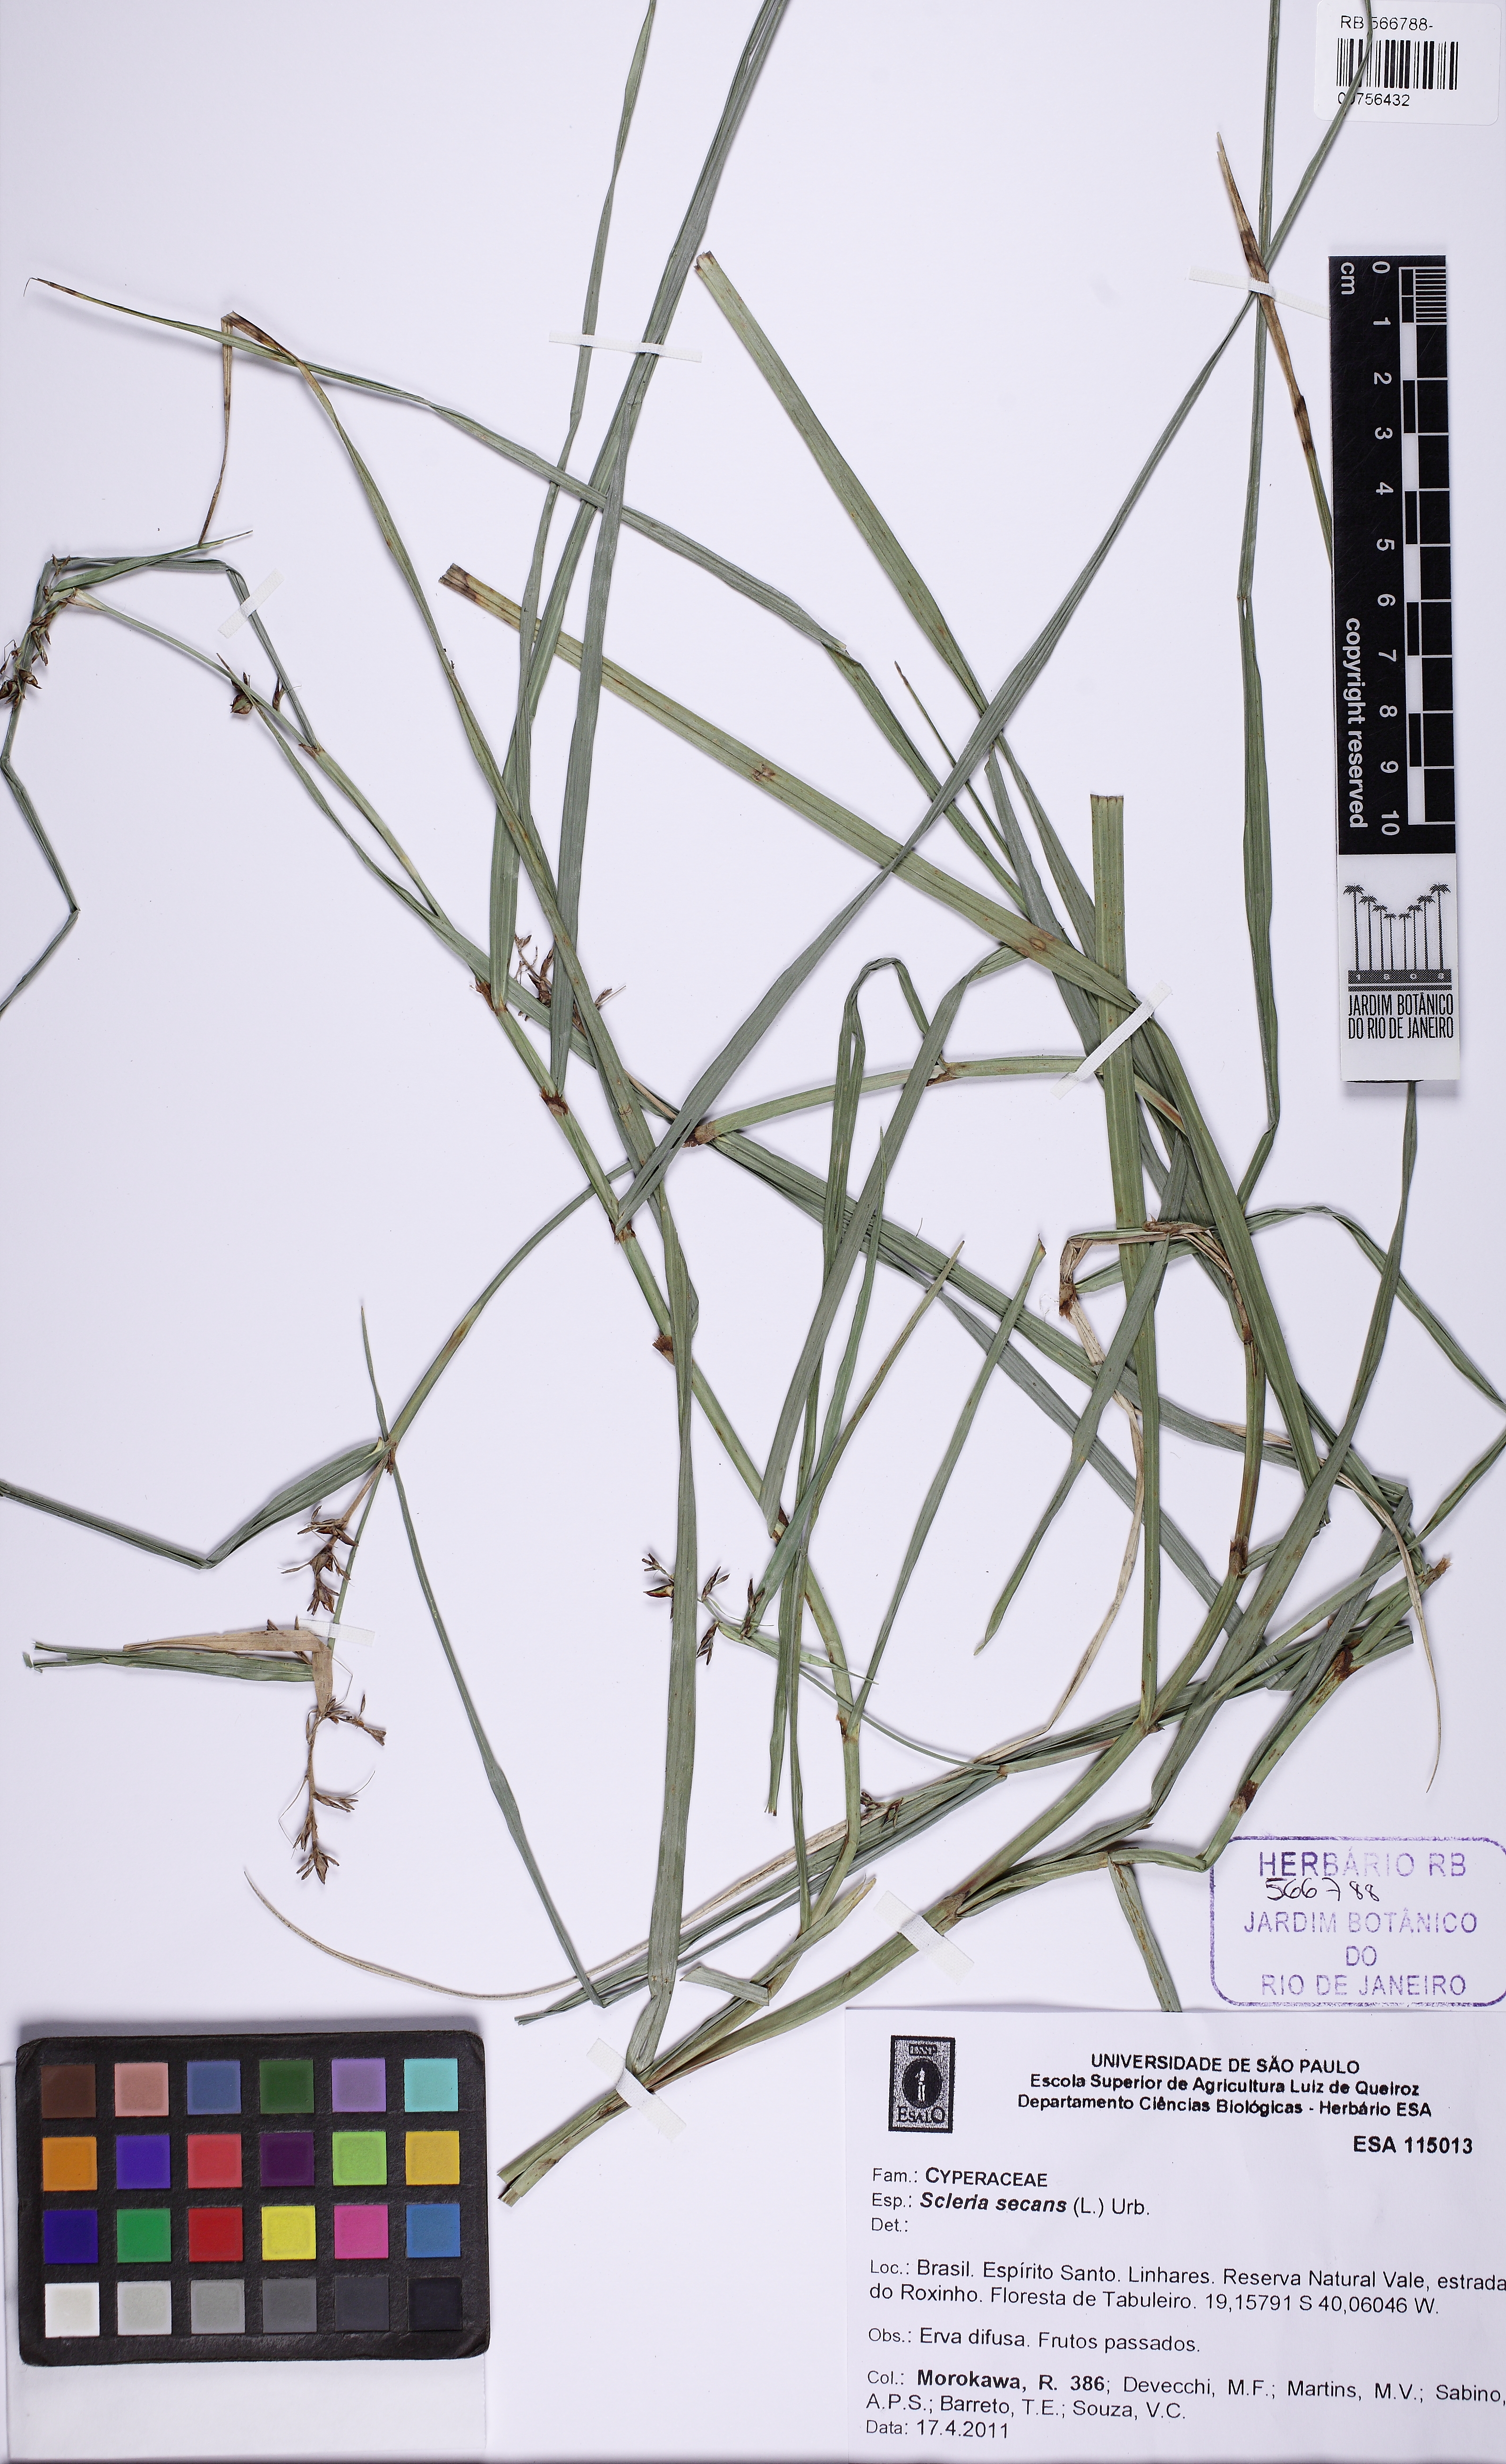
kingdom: Plantae
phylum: Tracheophyta
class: Liliopsida
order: Poales
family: Cyperaceae
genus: Scleria
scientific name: Scleria secans
